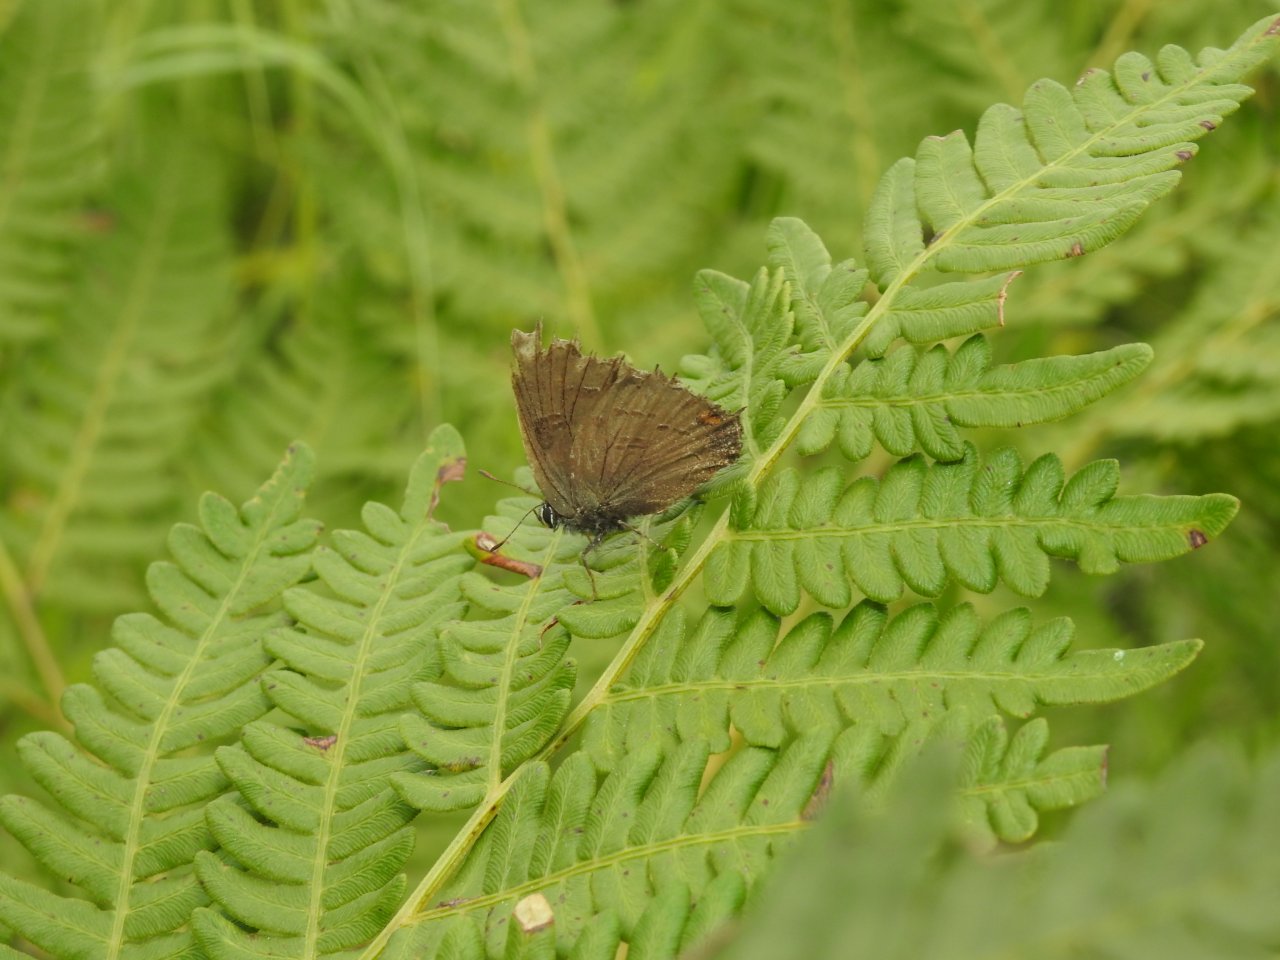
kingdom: Animalia
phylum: Arthropoda
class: Insecta
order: Lepidoptera
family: Lycaenidae
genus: Satyrium
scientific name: Satyrium calanus
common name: Banded Hairstreak
